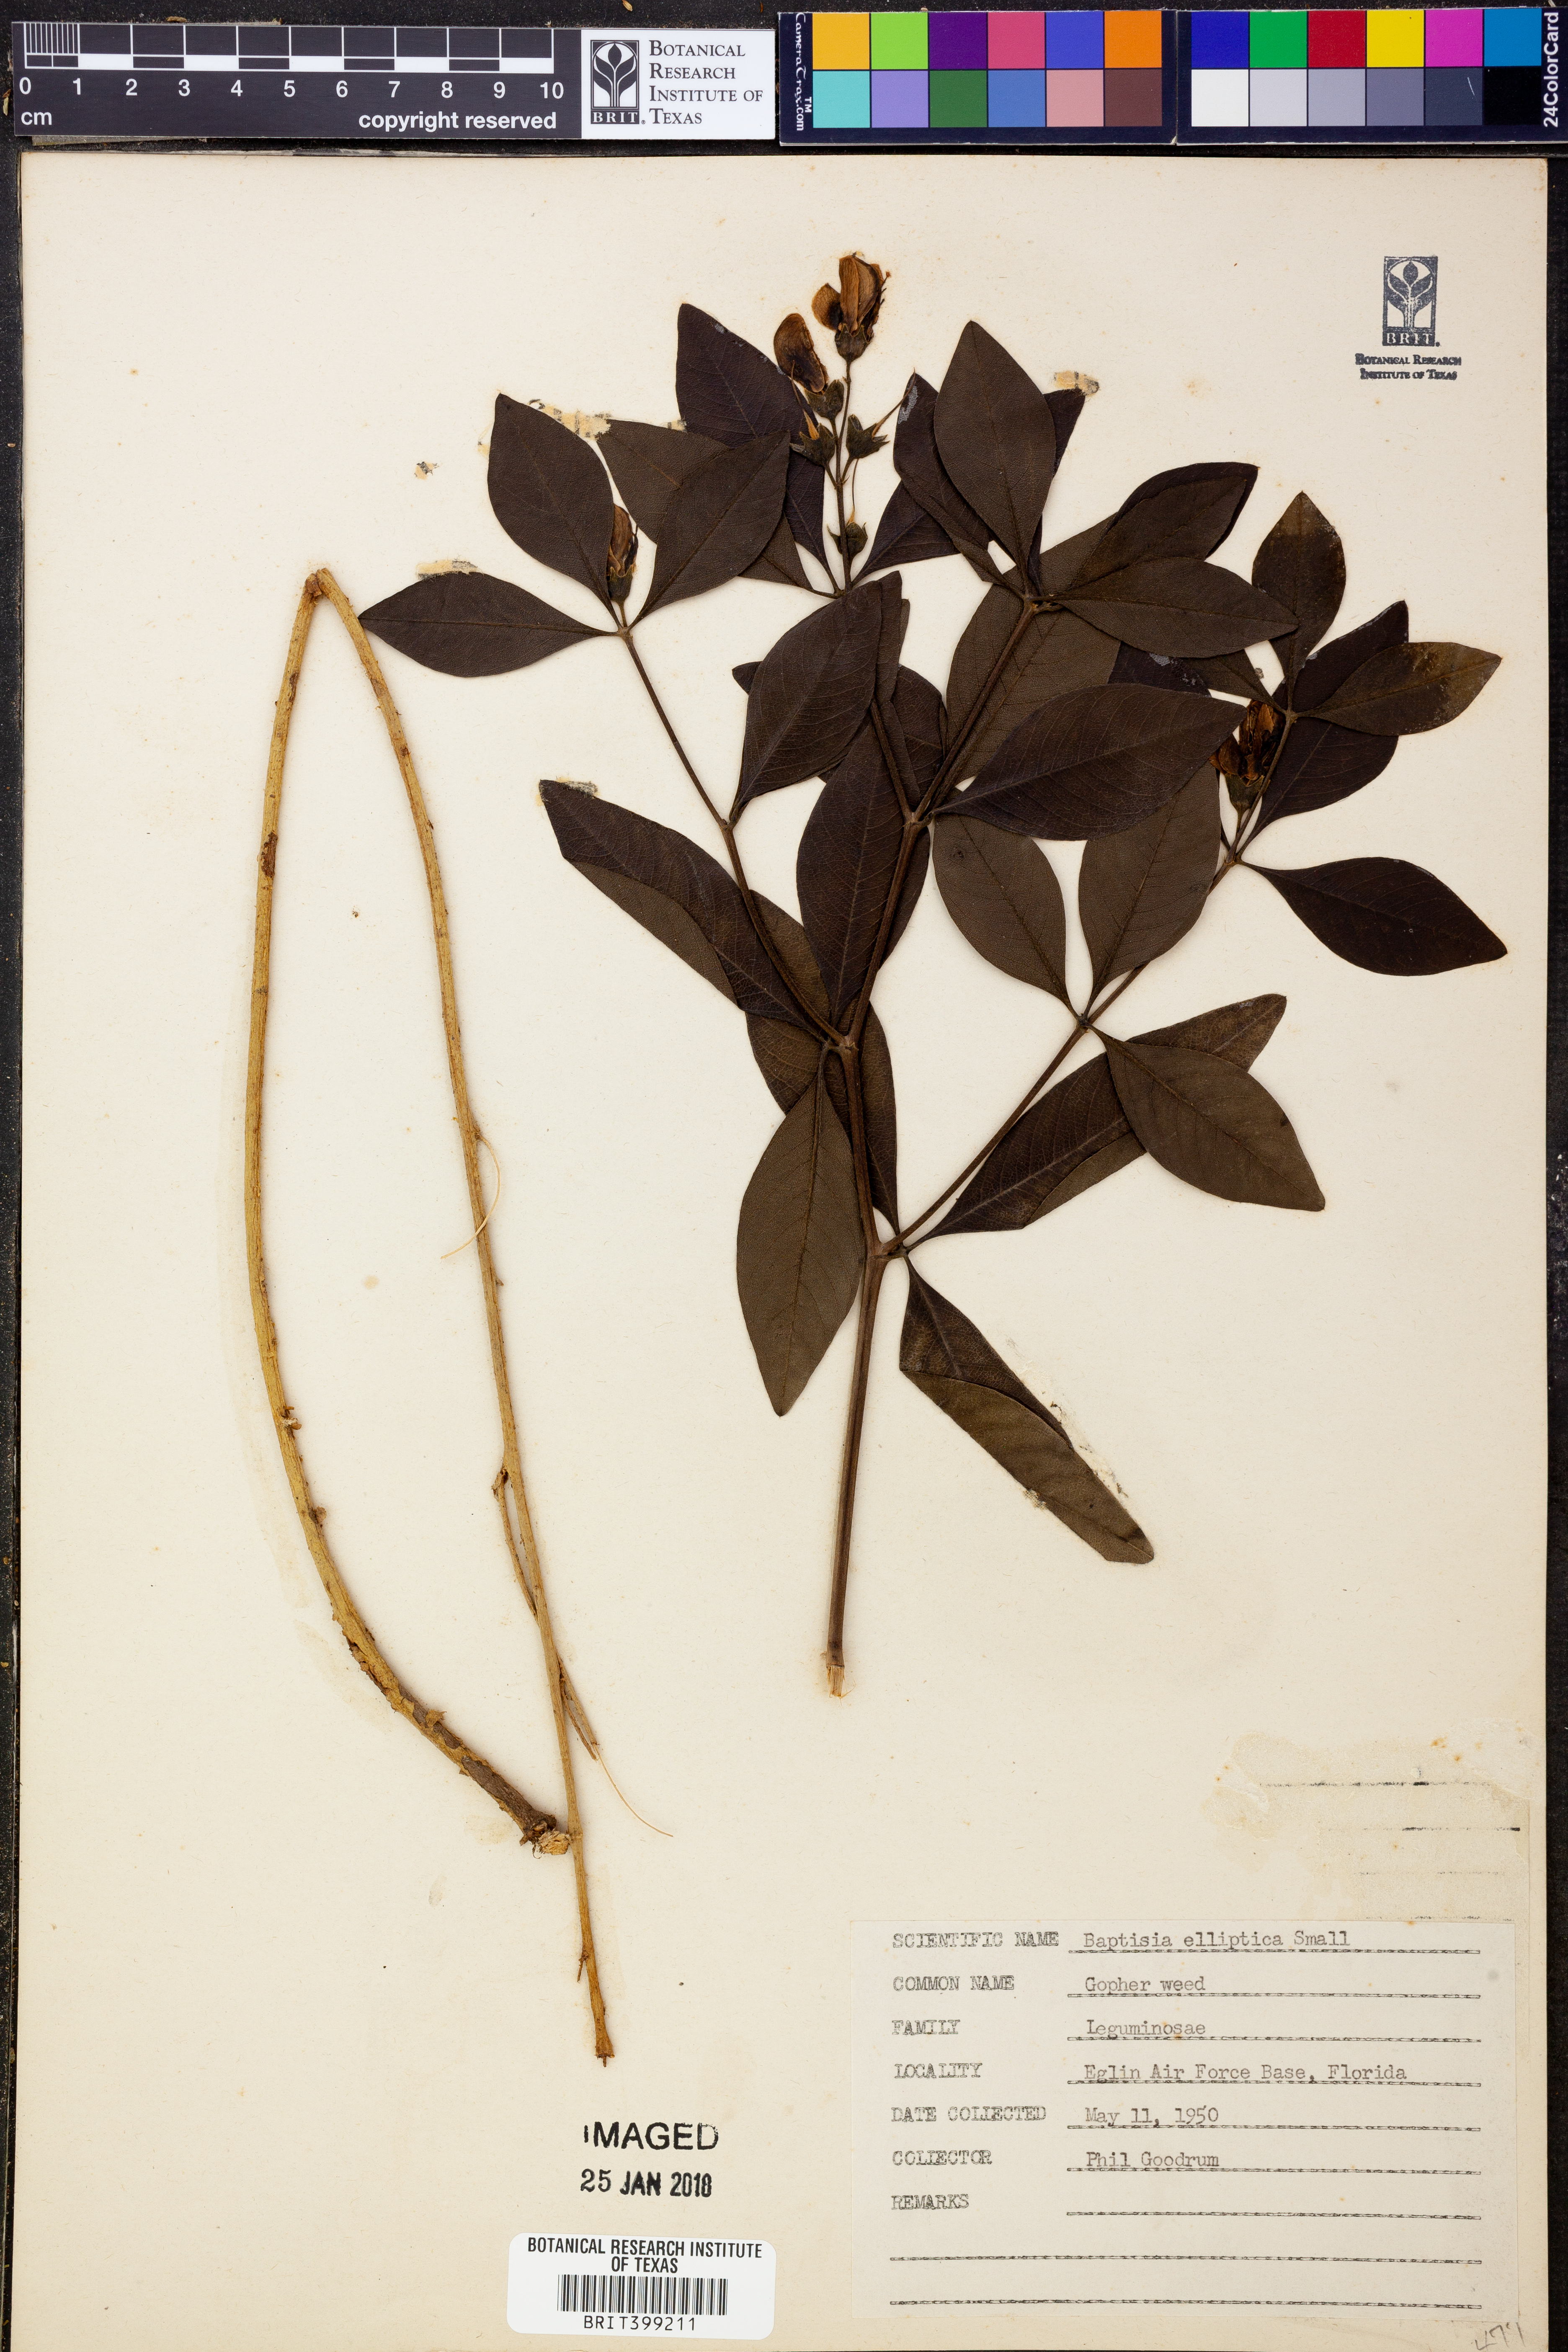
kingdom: Plantae
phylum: Tracheophyta
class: Magnoliopsida
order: Fabales
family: Fabaceae
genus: Baptisia
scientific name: Baptisia lanceolata
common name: Gopherweed
